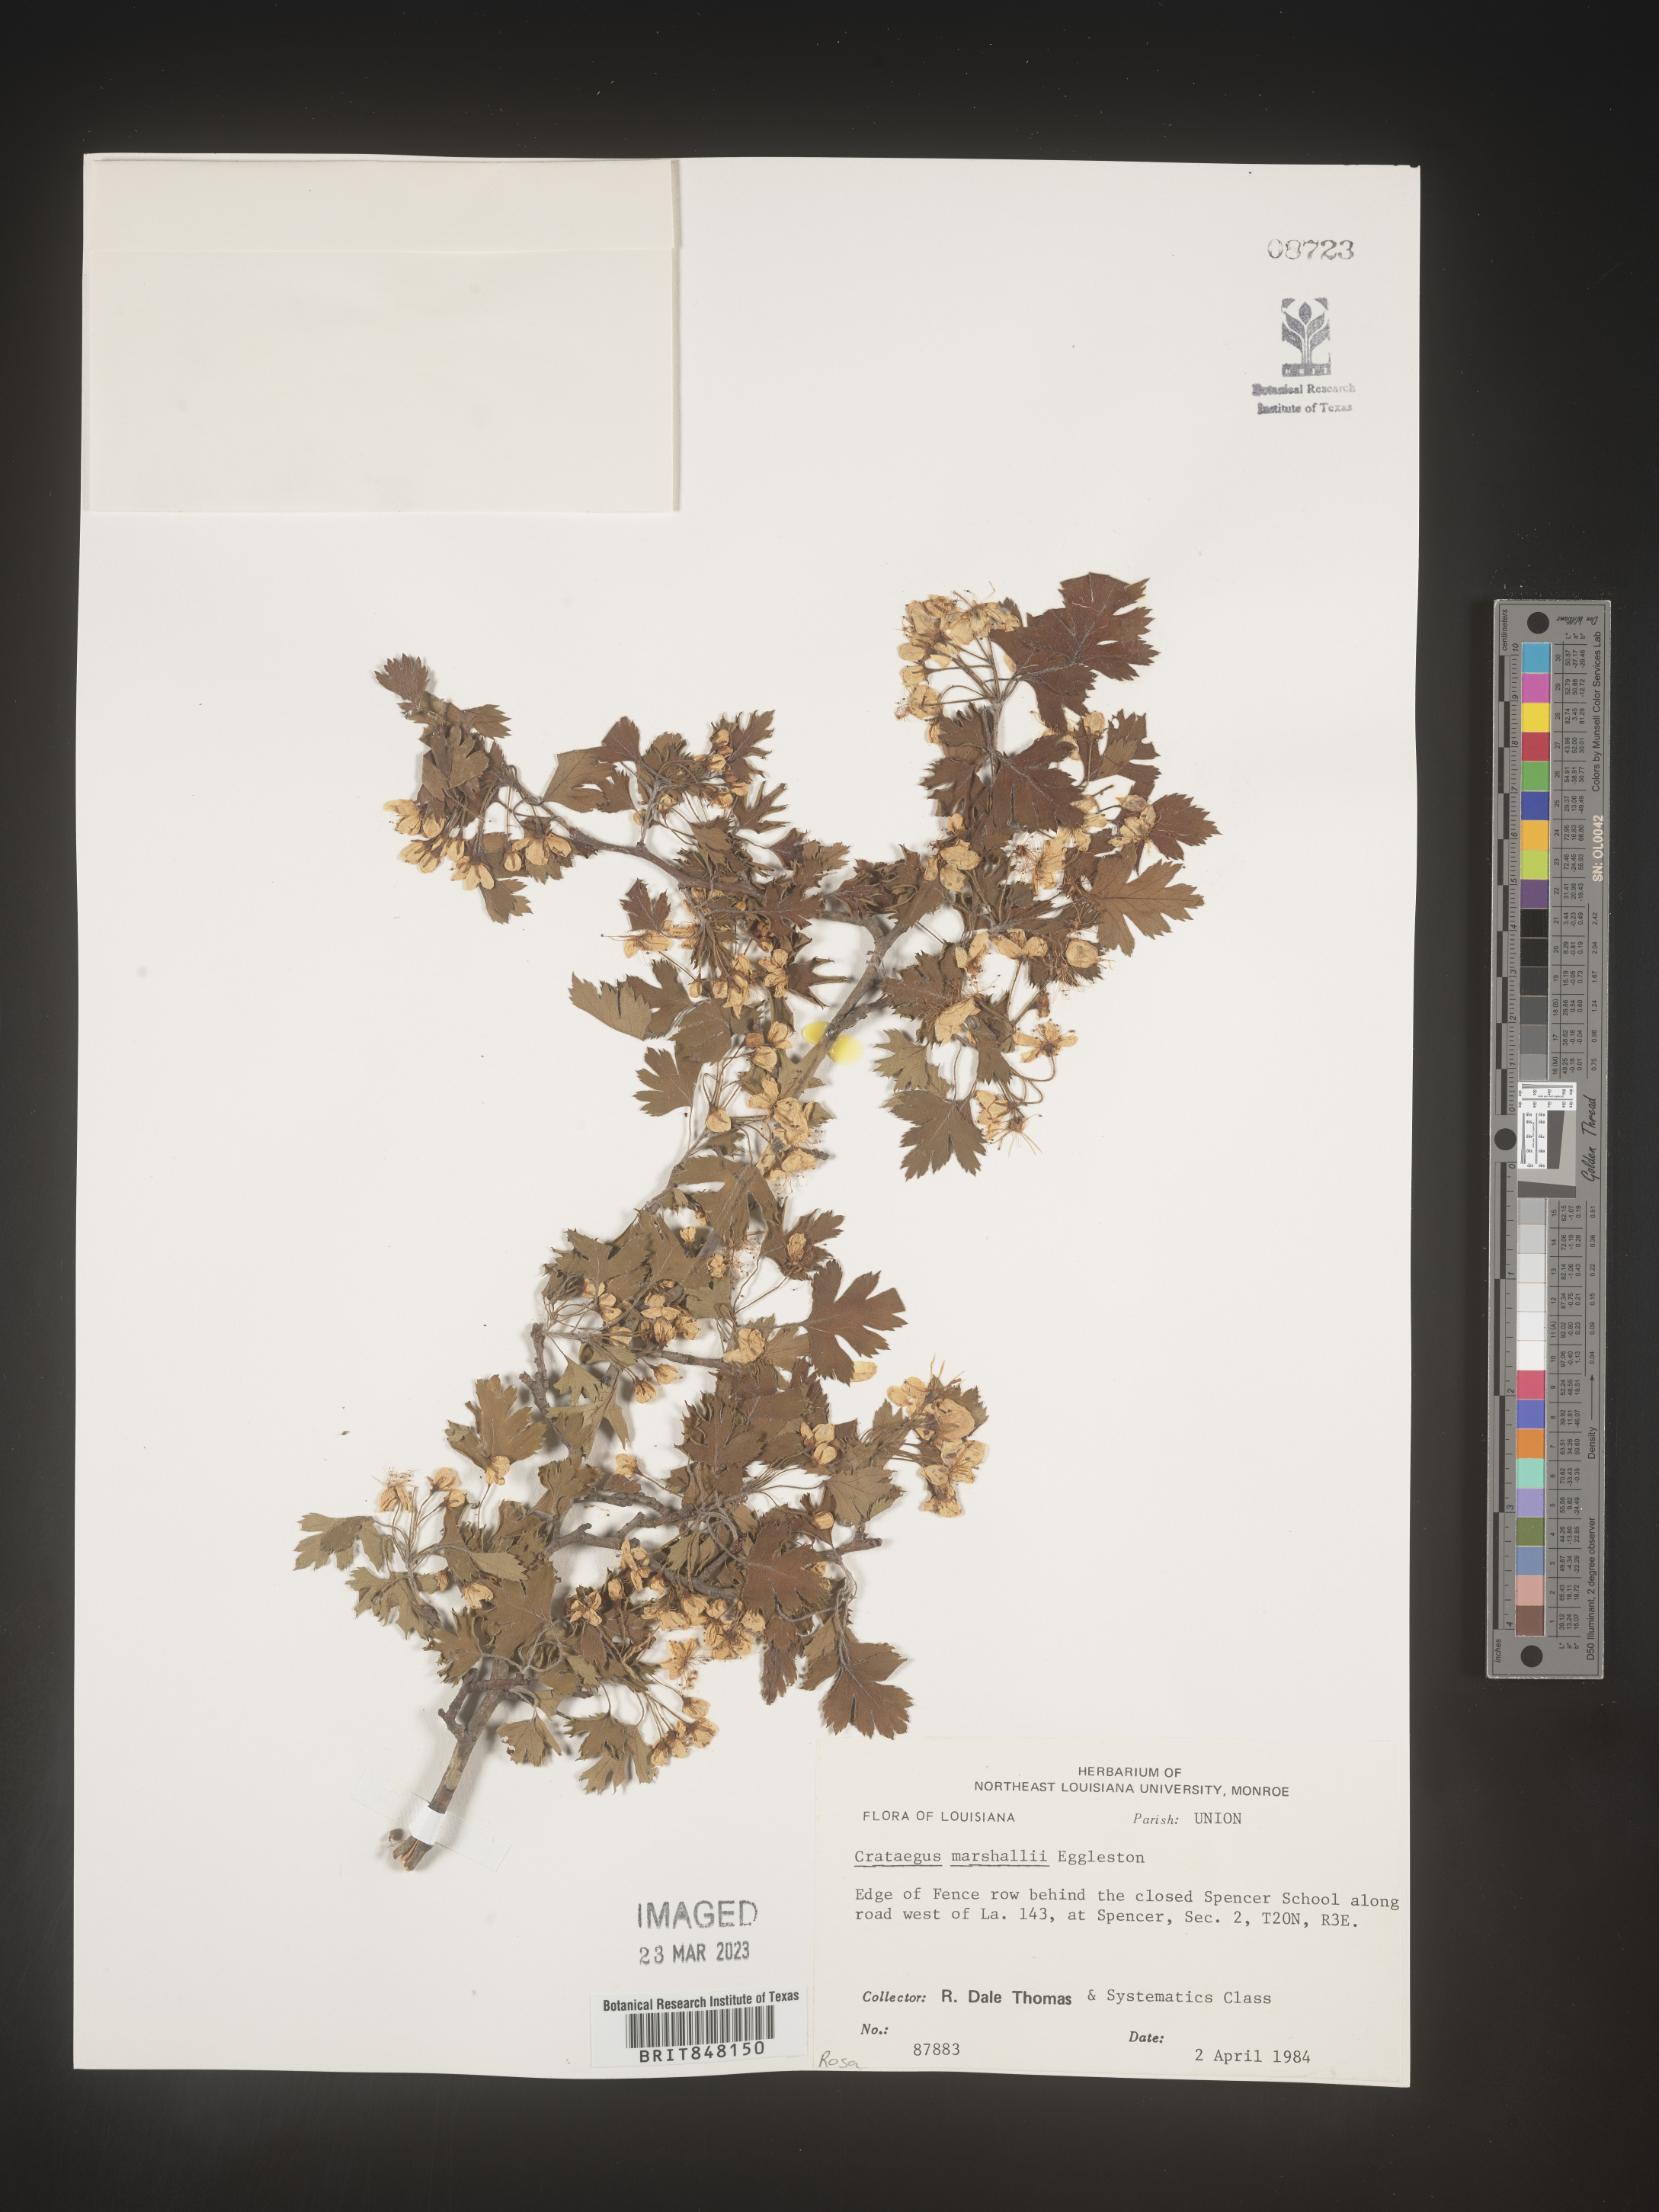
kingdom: Plantae
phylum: Tracheophyta
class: Magnoliopsida
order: Rosales
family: Rosaceae
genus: Crataegus
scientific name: Crataegus marshallii
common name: Parsley-hawthorn
